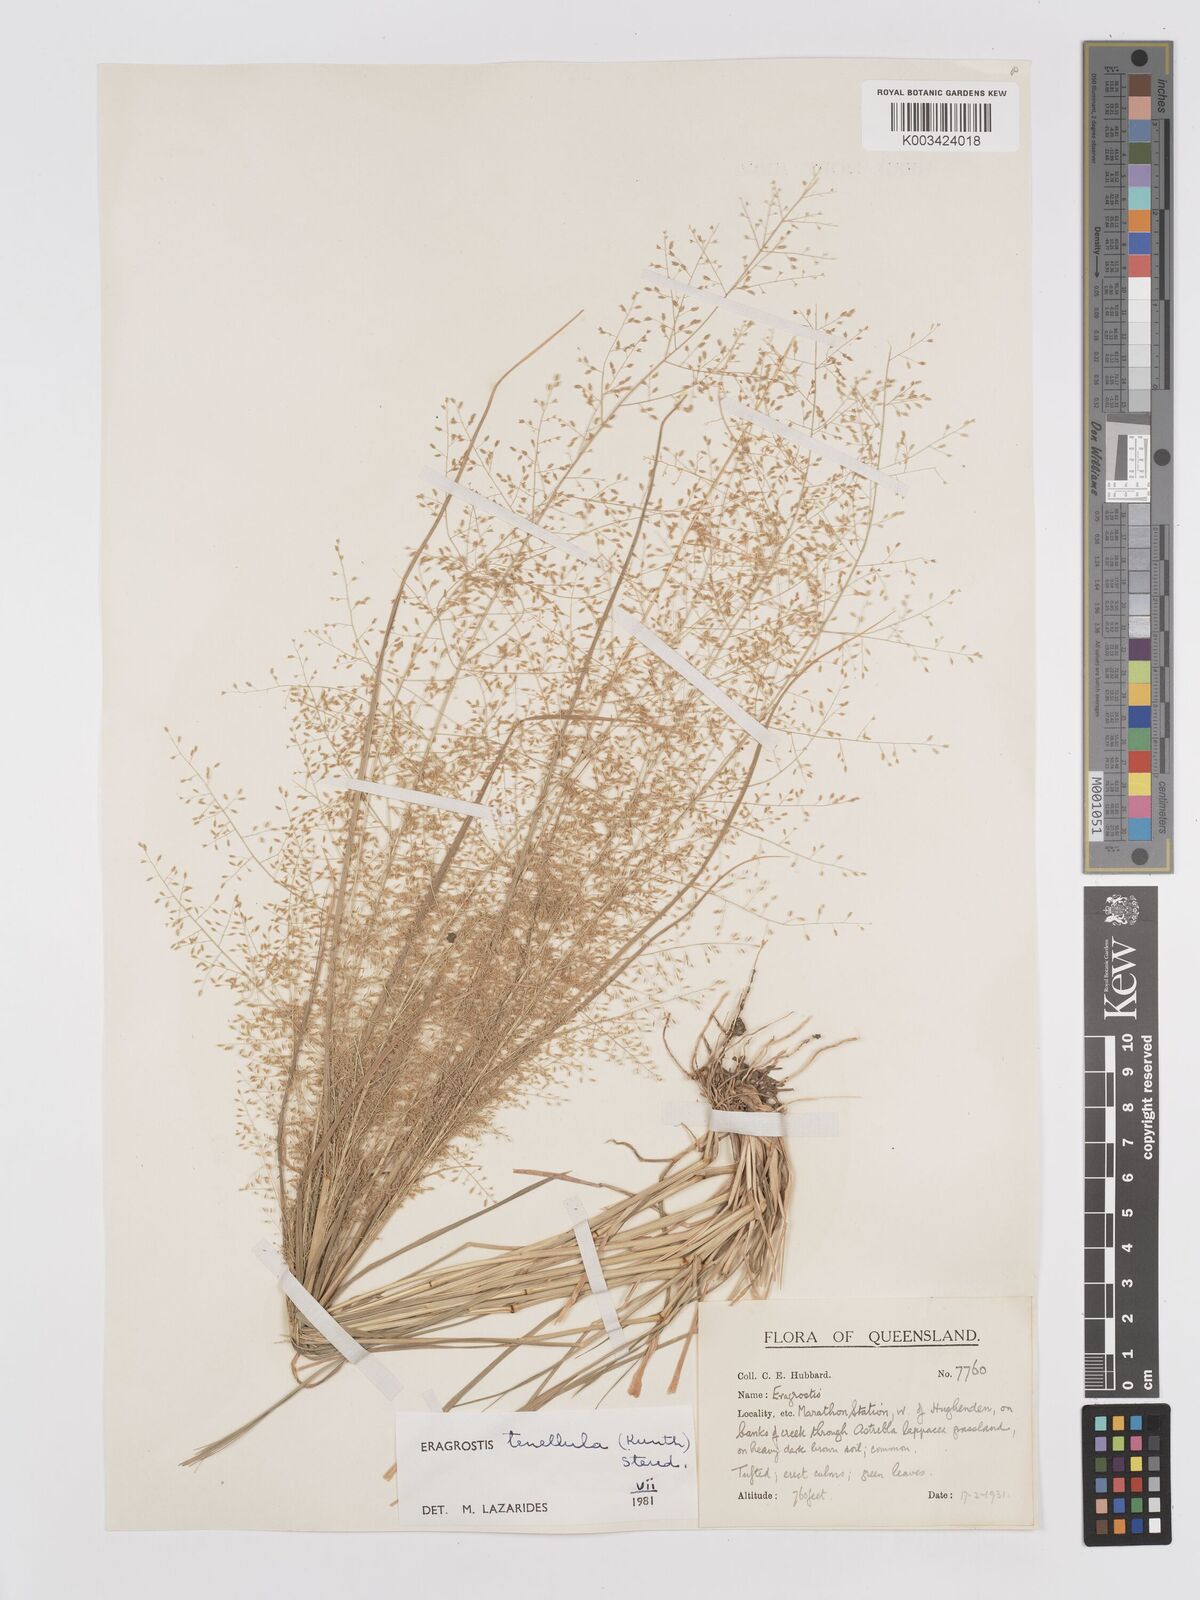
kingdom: Plantae
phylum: Tracheophyta
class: Liliopsida
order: Poales
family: Poaceae
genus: Eragrostis
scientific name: Eragrostis tenellula
